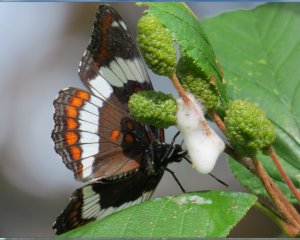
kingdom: Animalia
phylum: Arthropoda
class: Insecta
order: Lepidoptera
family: Nymphalidae
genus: Limenitis
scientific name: Limenitis arthemis
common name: Red-spotted Admiral
